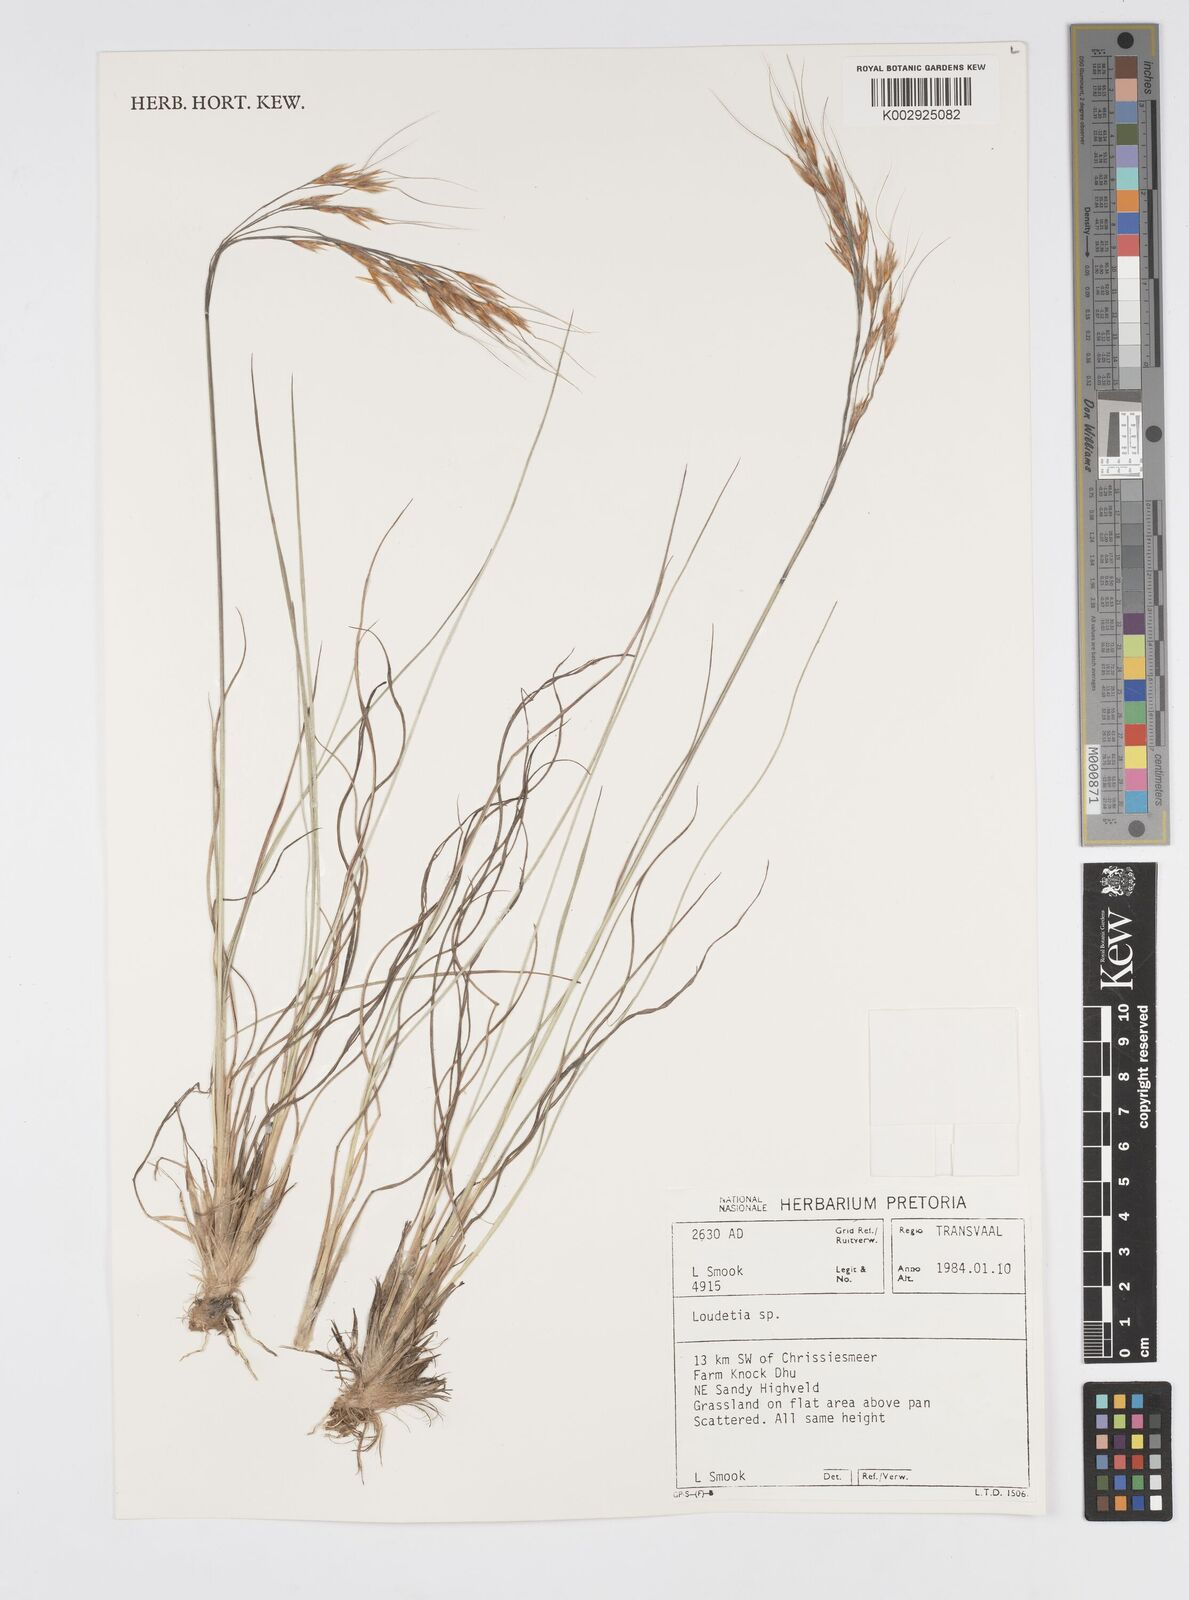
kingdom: Plantae
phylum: Tracheophyta
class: Liliopsida
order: Poales
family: Poaceae
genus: Loudetia
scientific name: Loudetia
